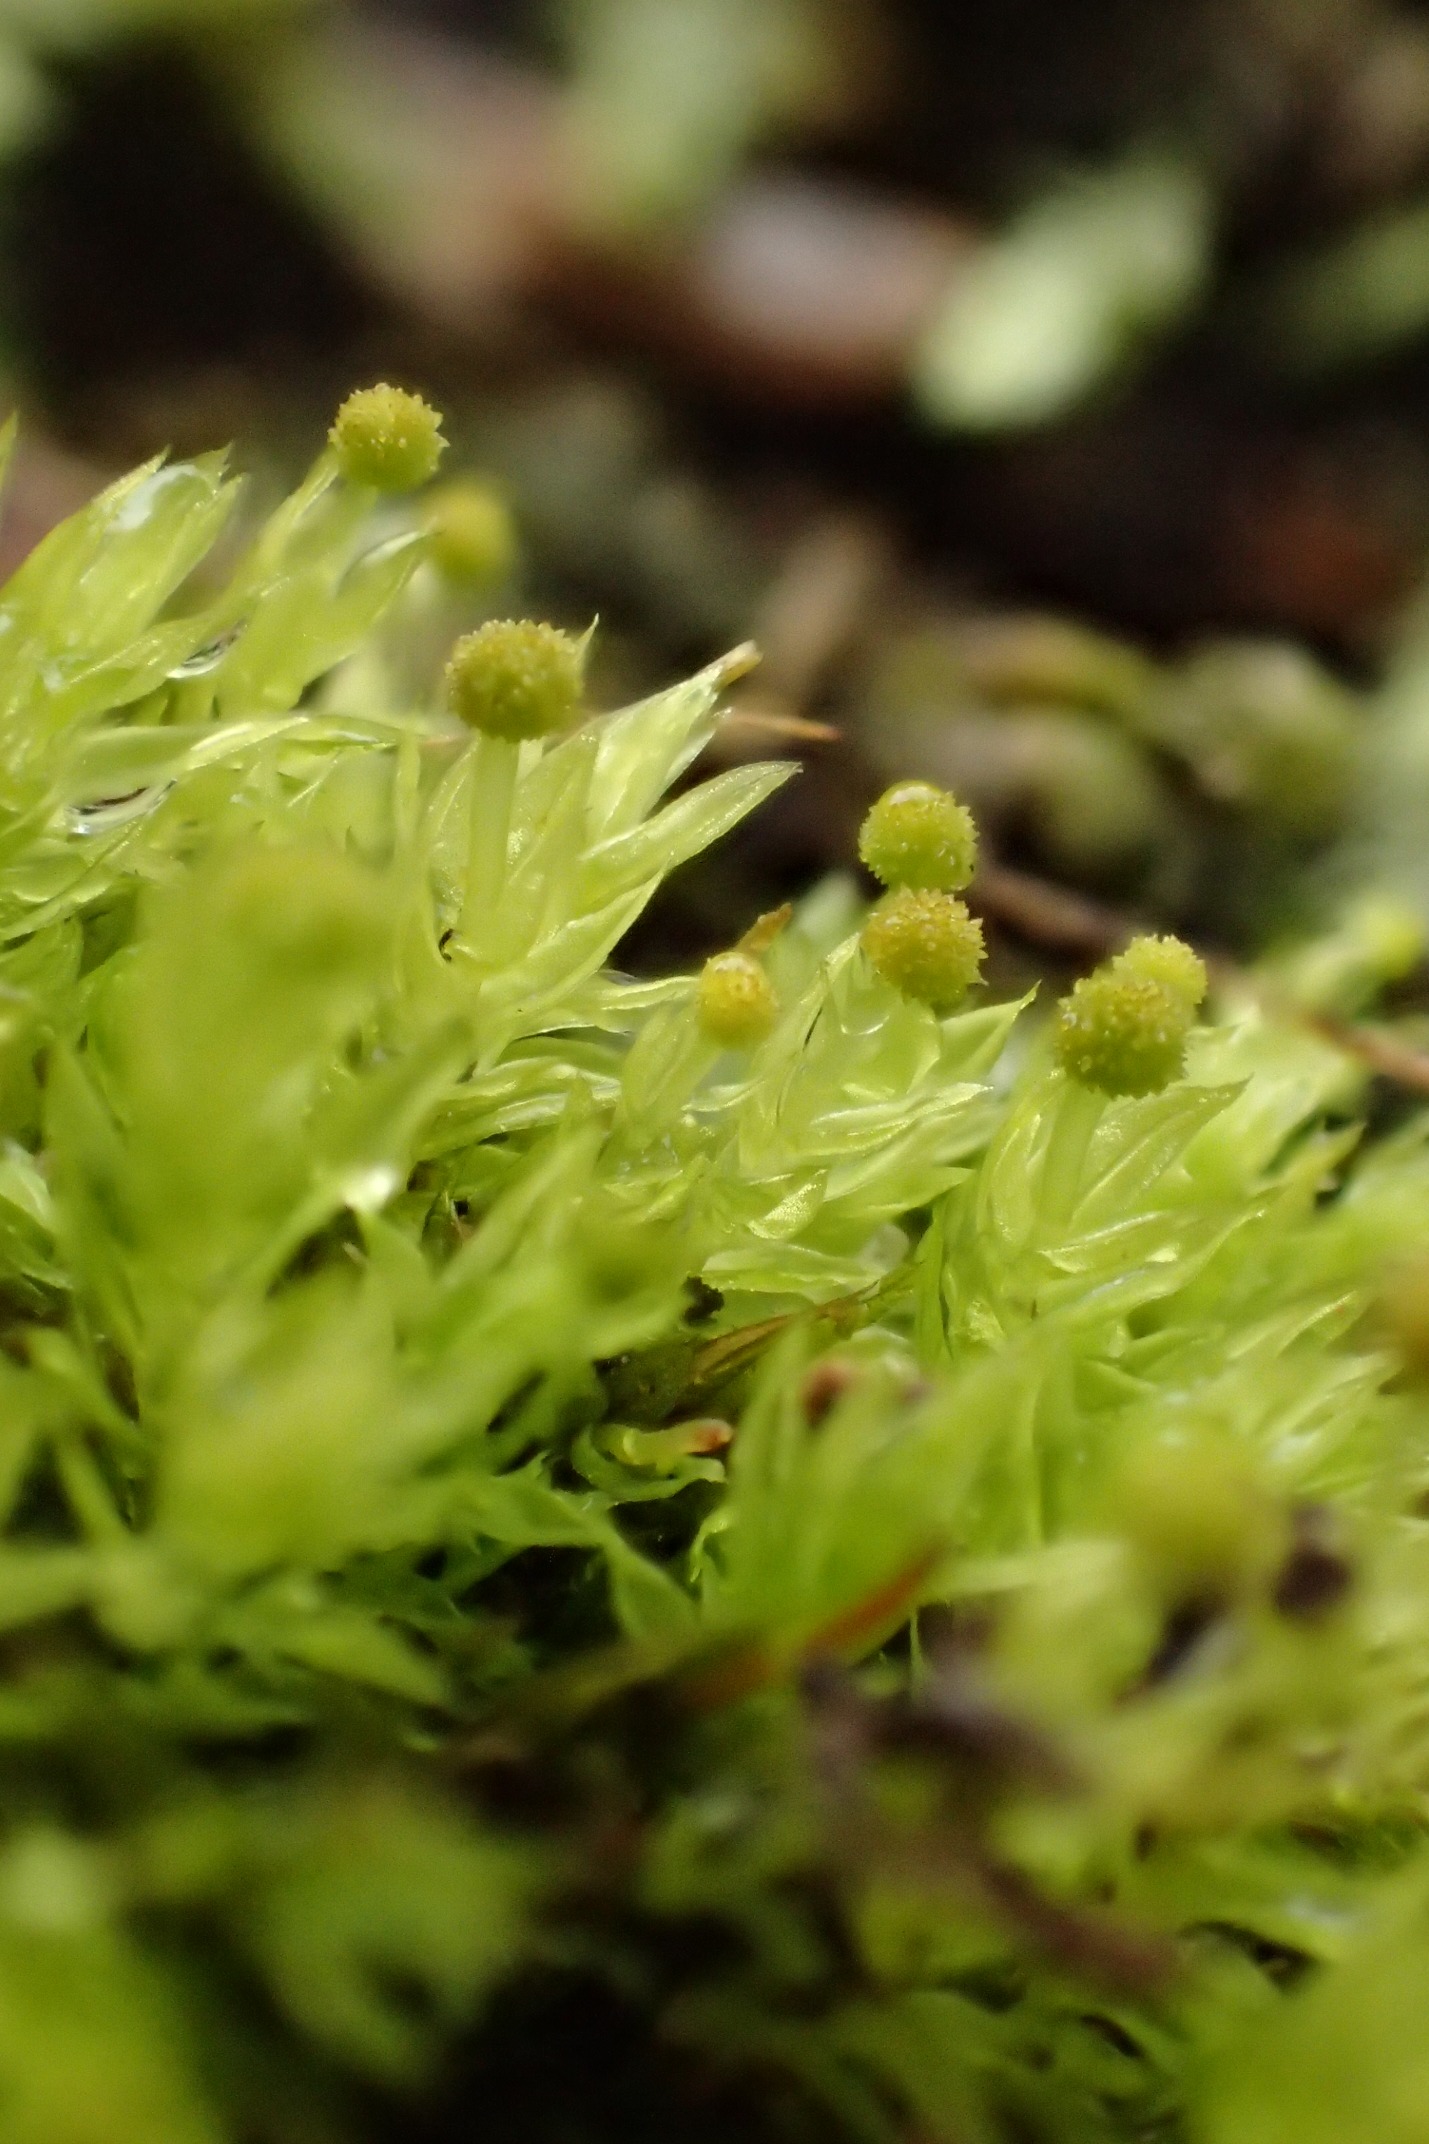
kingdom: Plantae
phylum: Bryophyta
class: Bryopsida
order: Aulacomniales
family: Aulacomniaceae
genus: Aulacomnium
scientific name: Aulacomnium androgynum
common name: Kugle-filtmos
